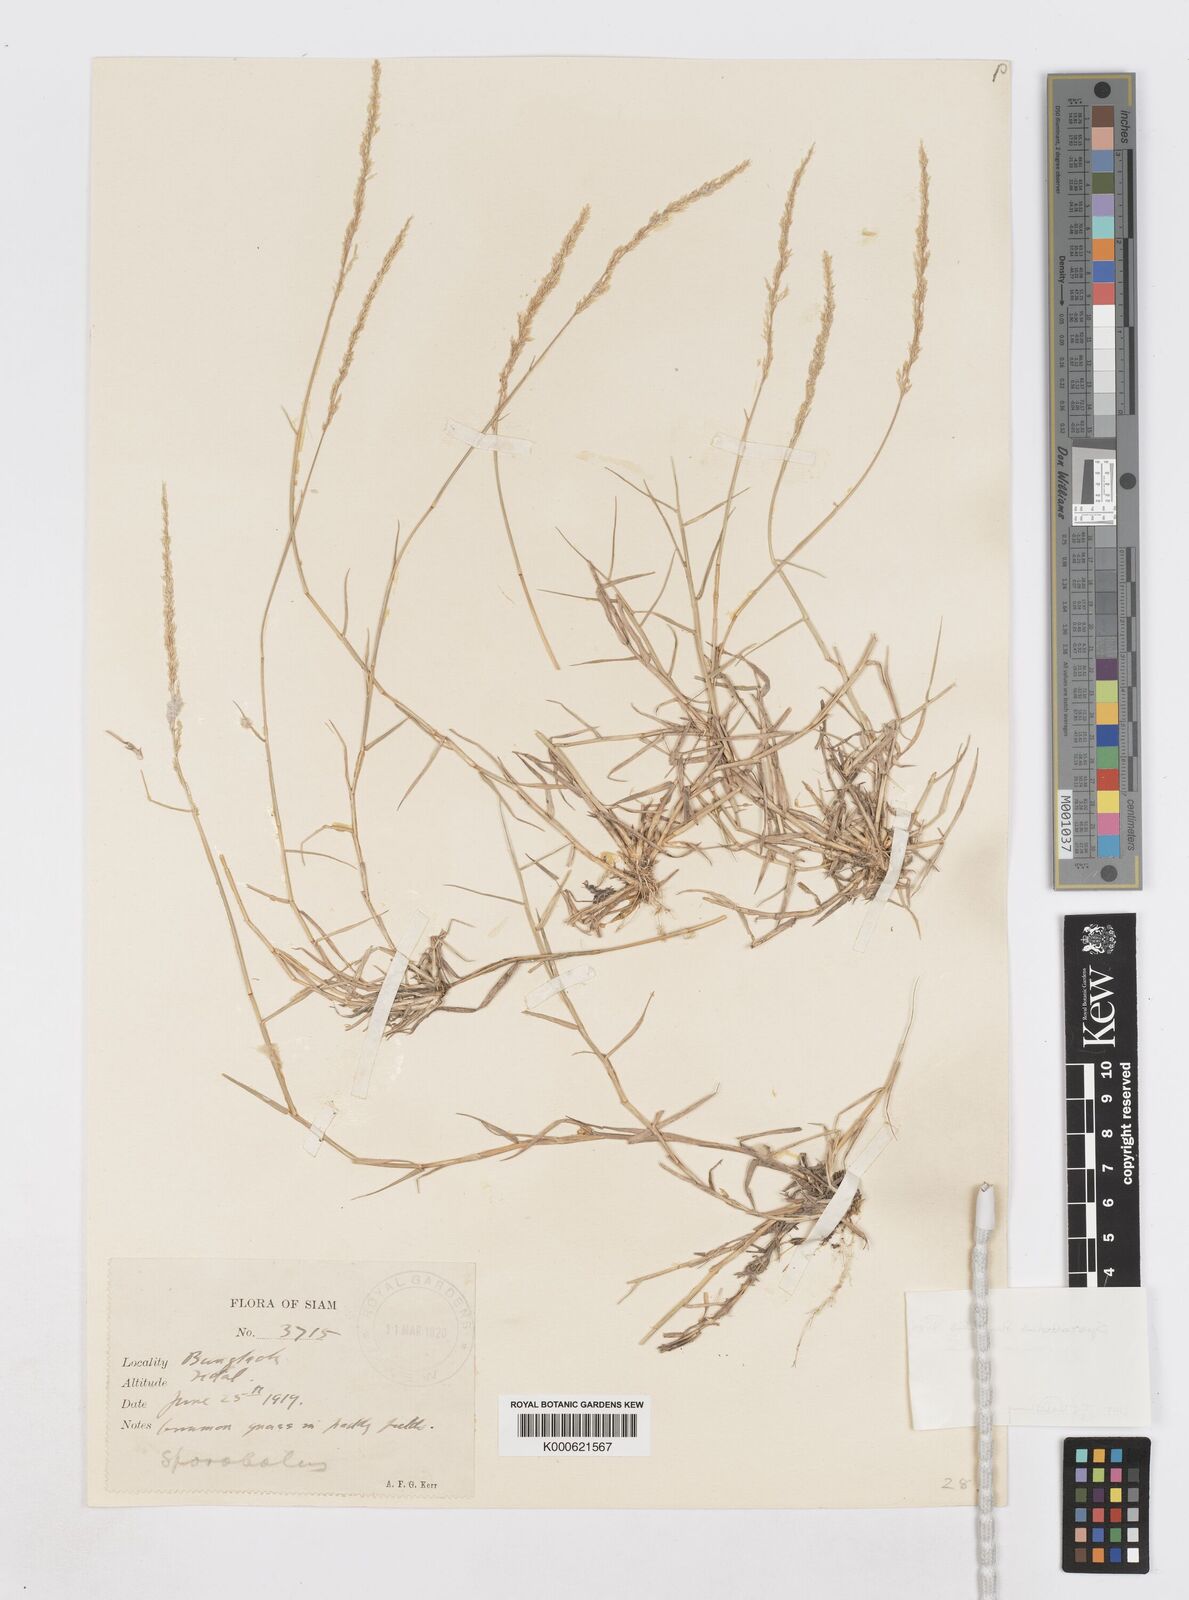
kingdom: Plantae
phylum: Tracheophyta
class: Liliopsida
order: Poales
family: Poaceae
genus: Sporobolus
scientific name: Sporobolus virginicus
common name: Beach dropseed
